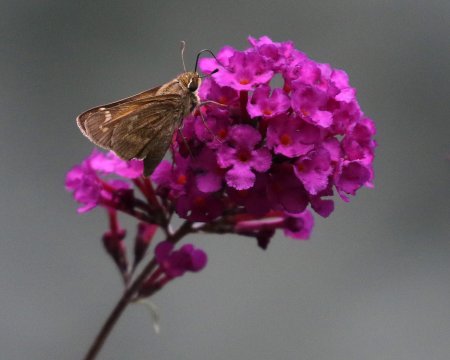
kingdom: Animalia
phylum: Arthropoda
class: Insecta
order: Lepidoptera
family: Hesperiidae
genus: Atalopedes
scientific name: Atalopedes campestris
